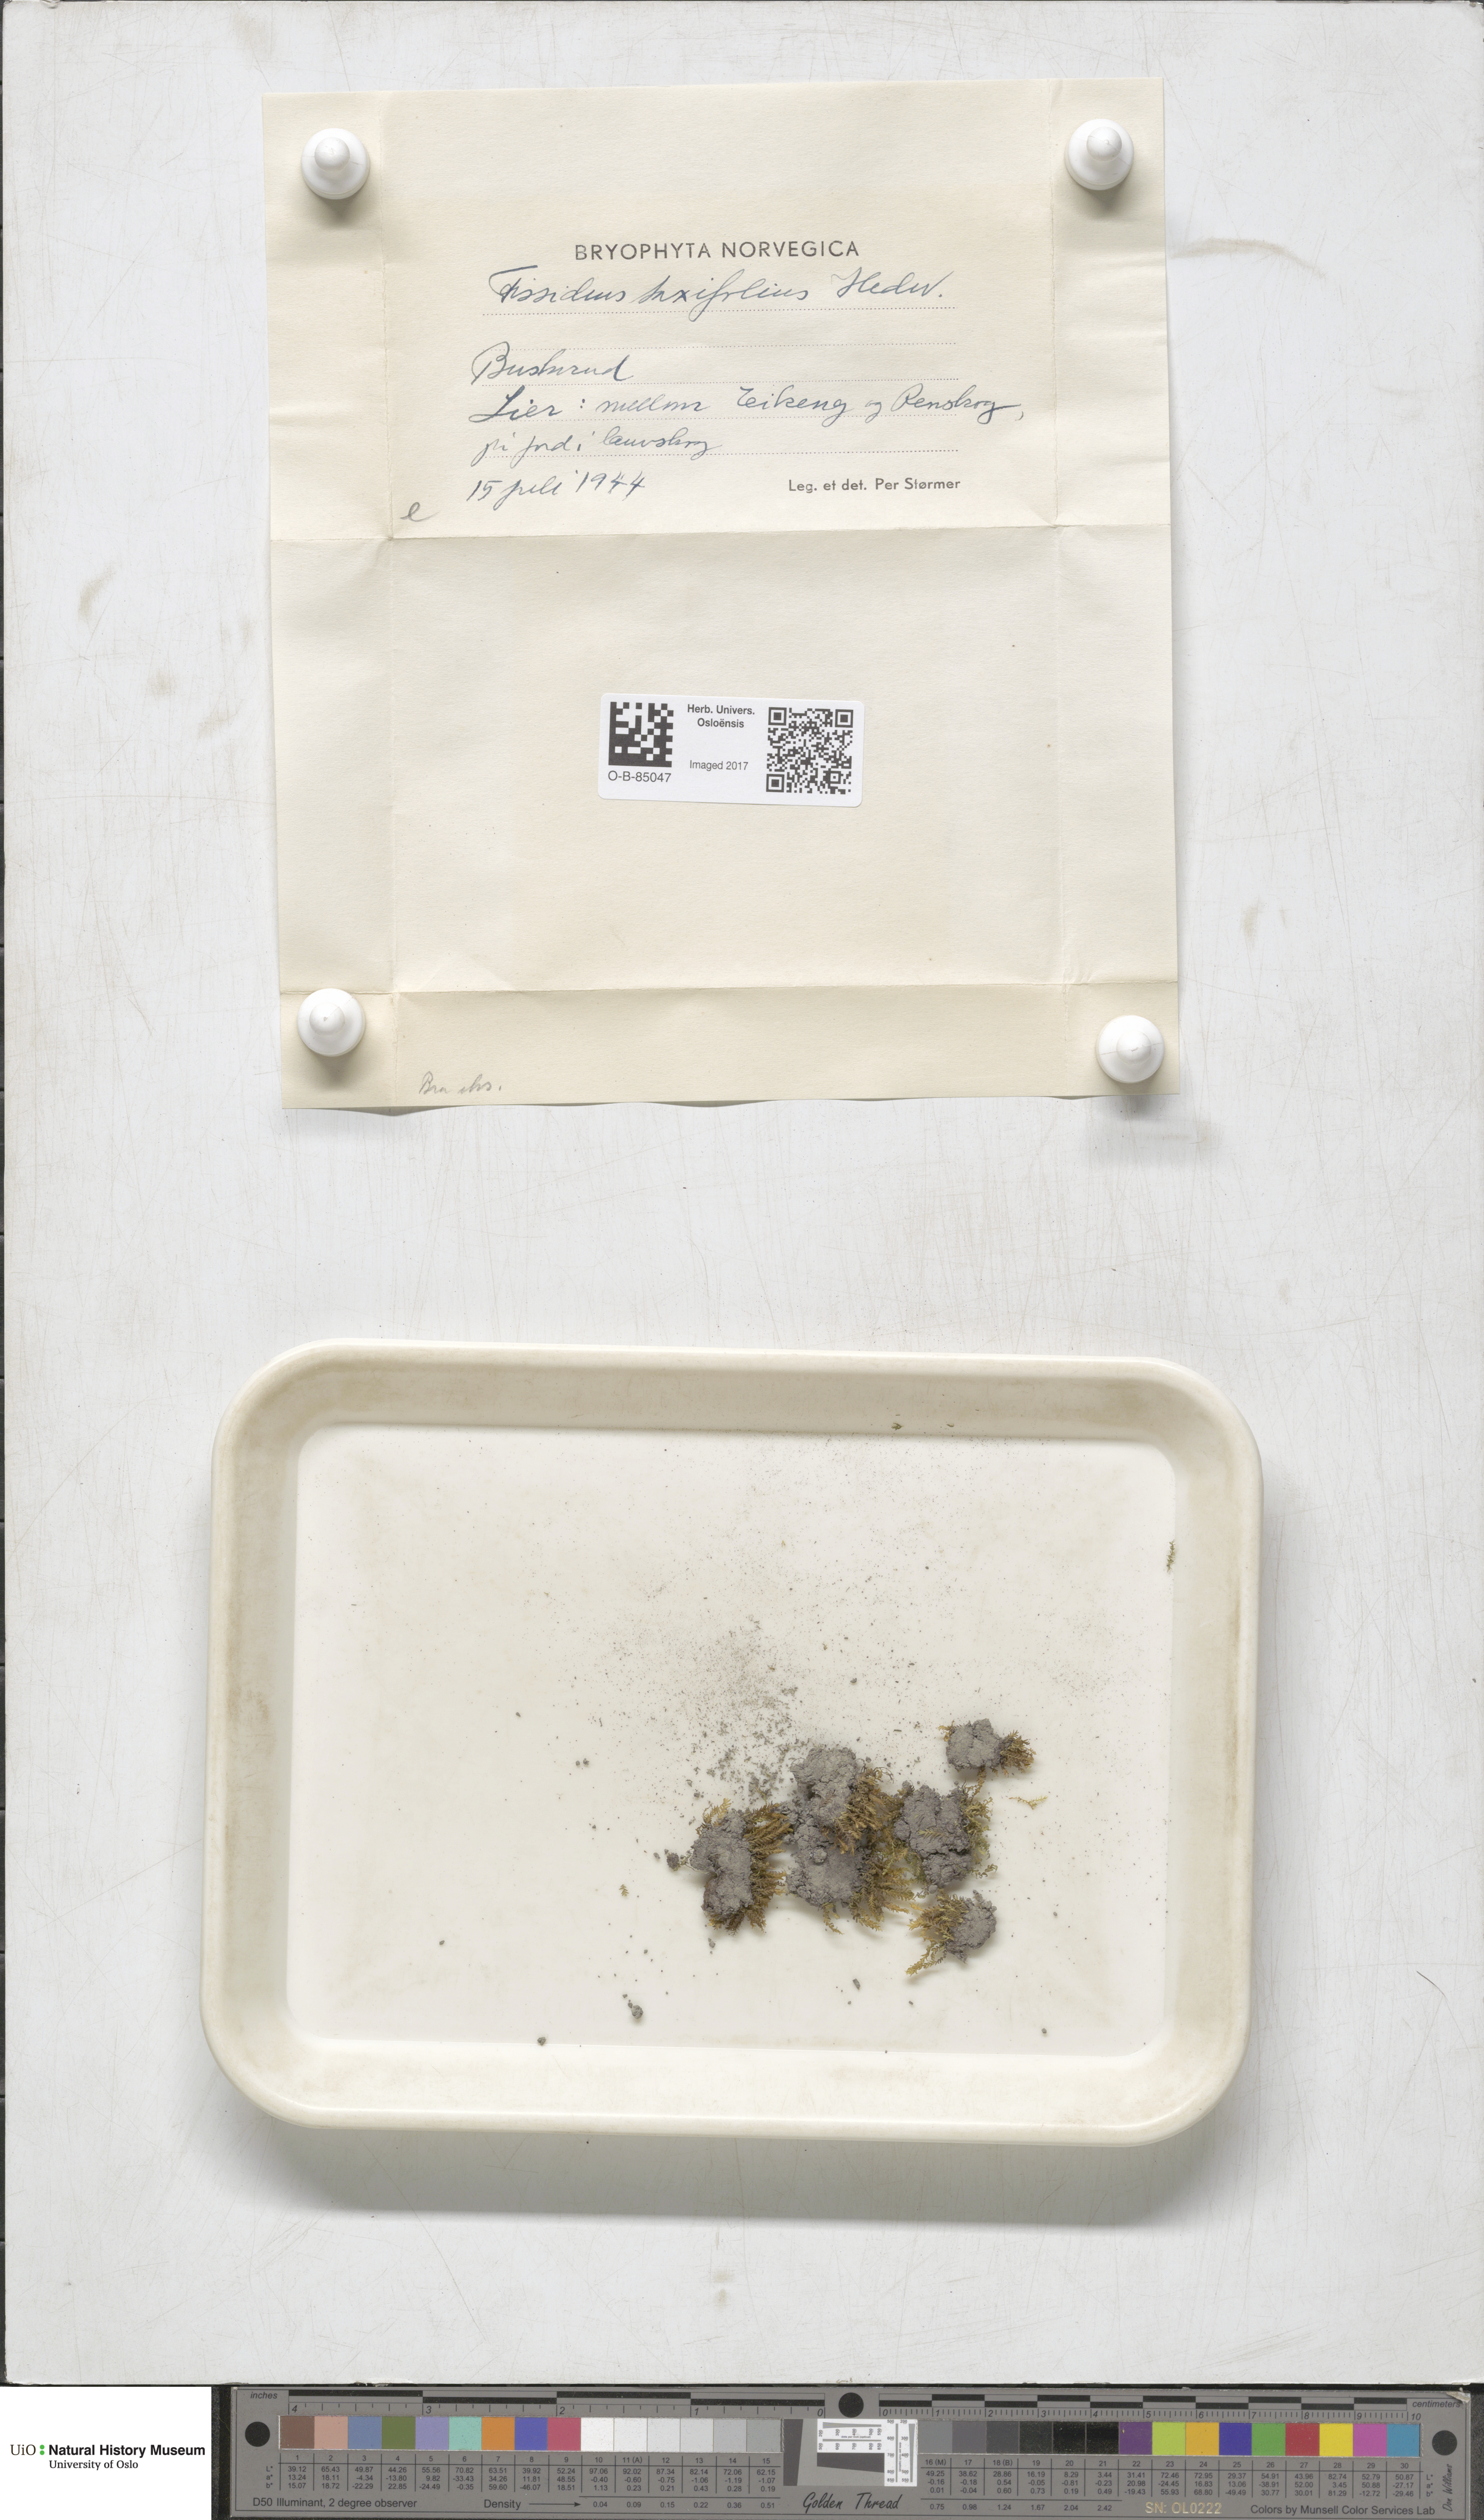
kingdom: Plantae
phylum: Bryophyta
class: Bryopsida
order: Dicranales
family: Fissidentaceae
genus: Fissidens
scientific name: Fissidens taxifolius
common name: Yew-leaved pocket moss
